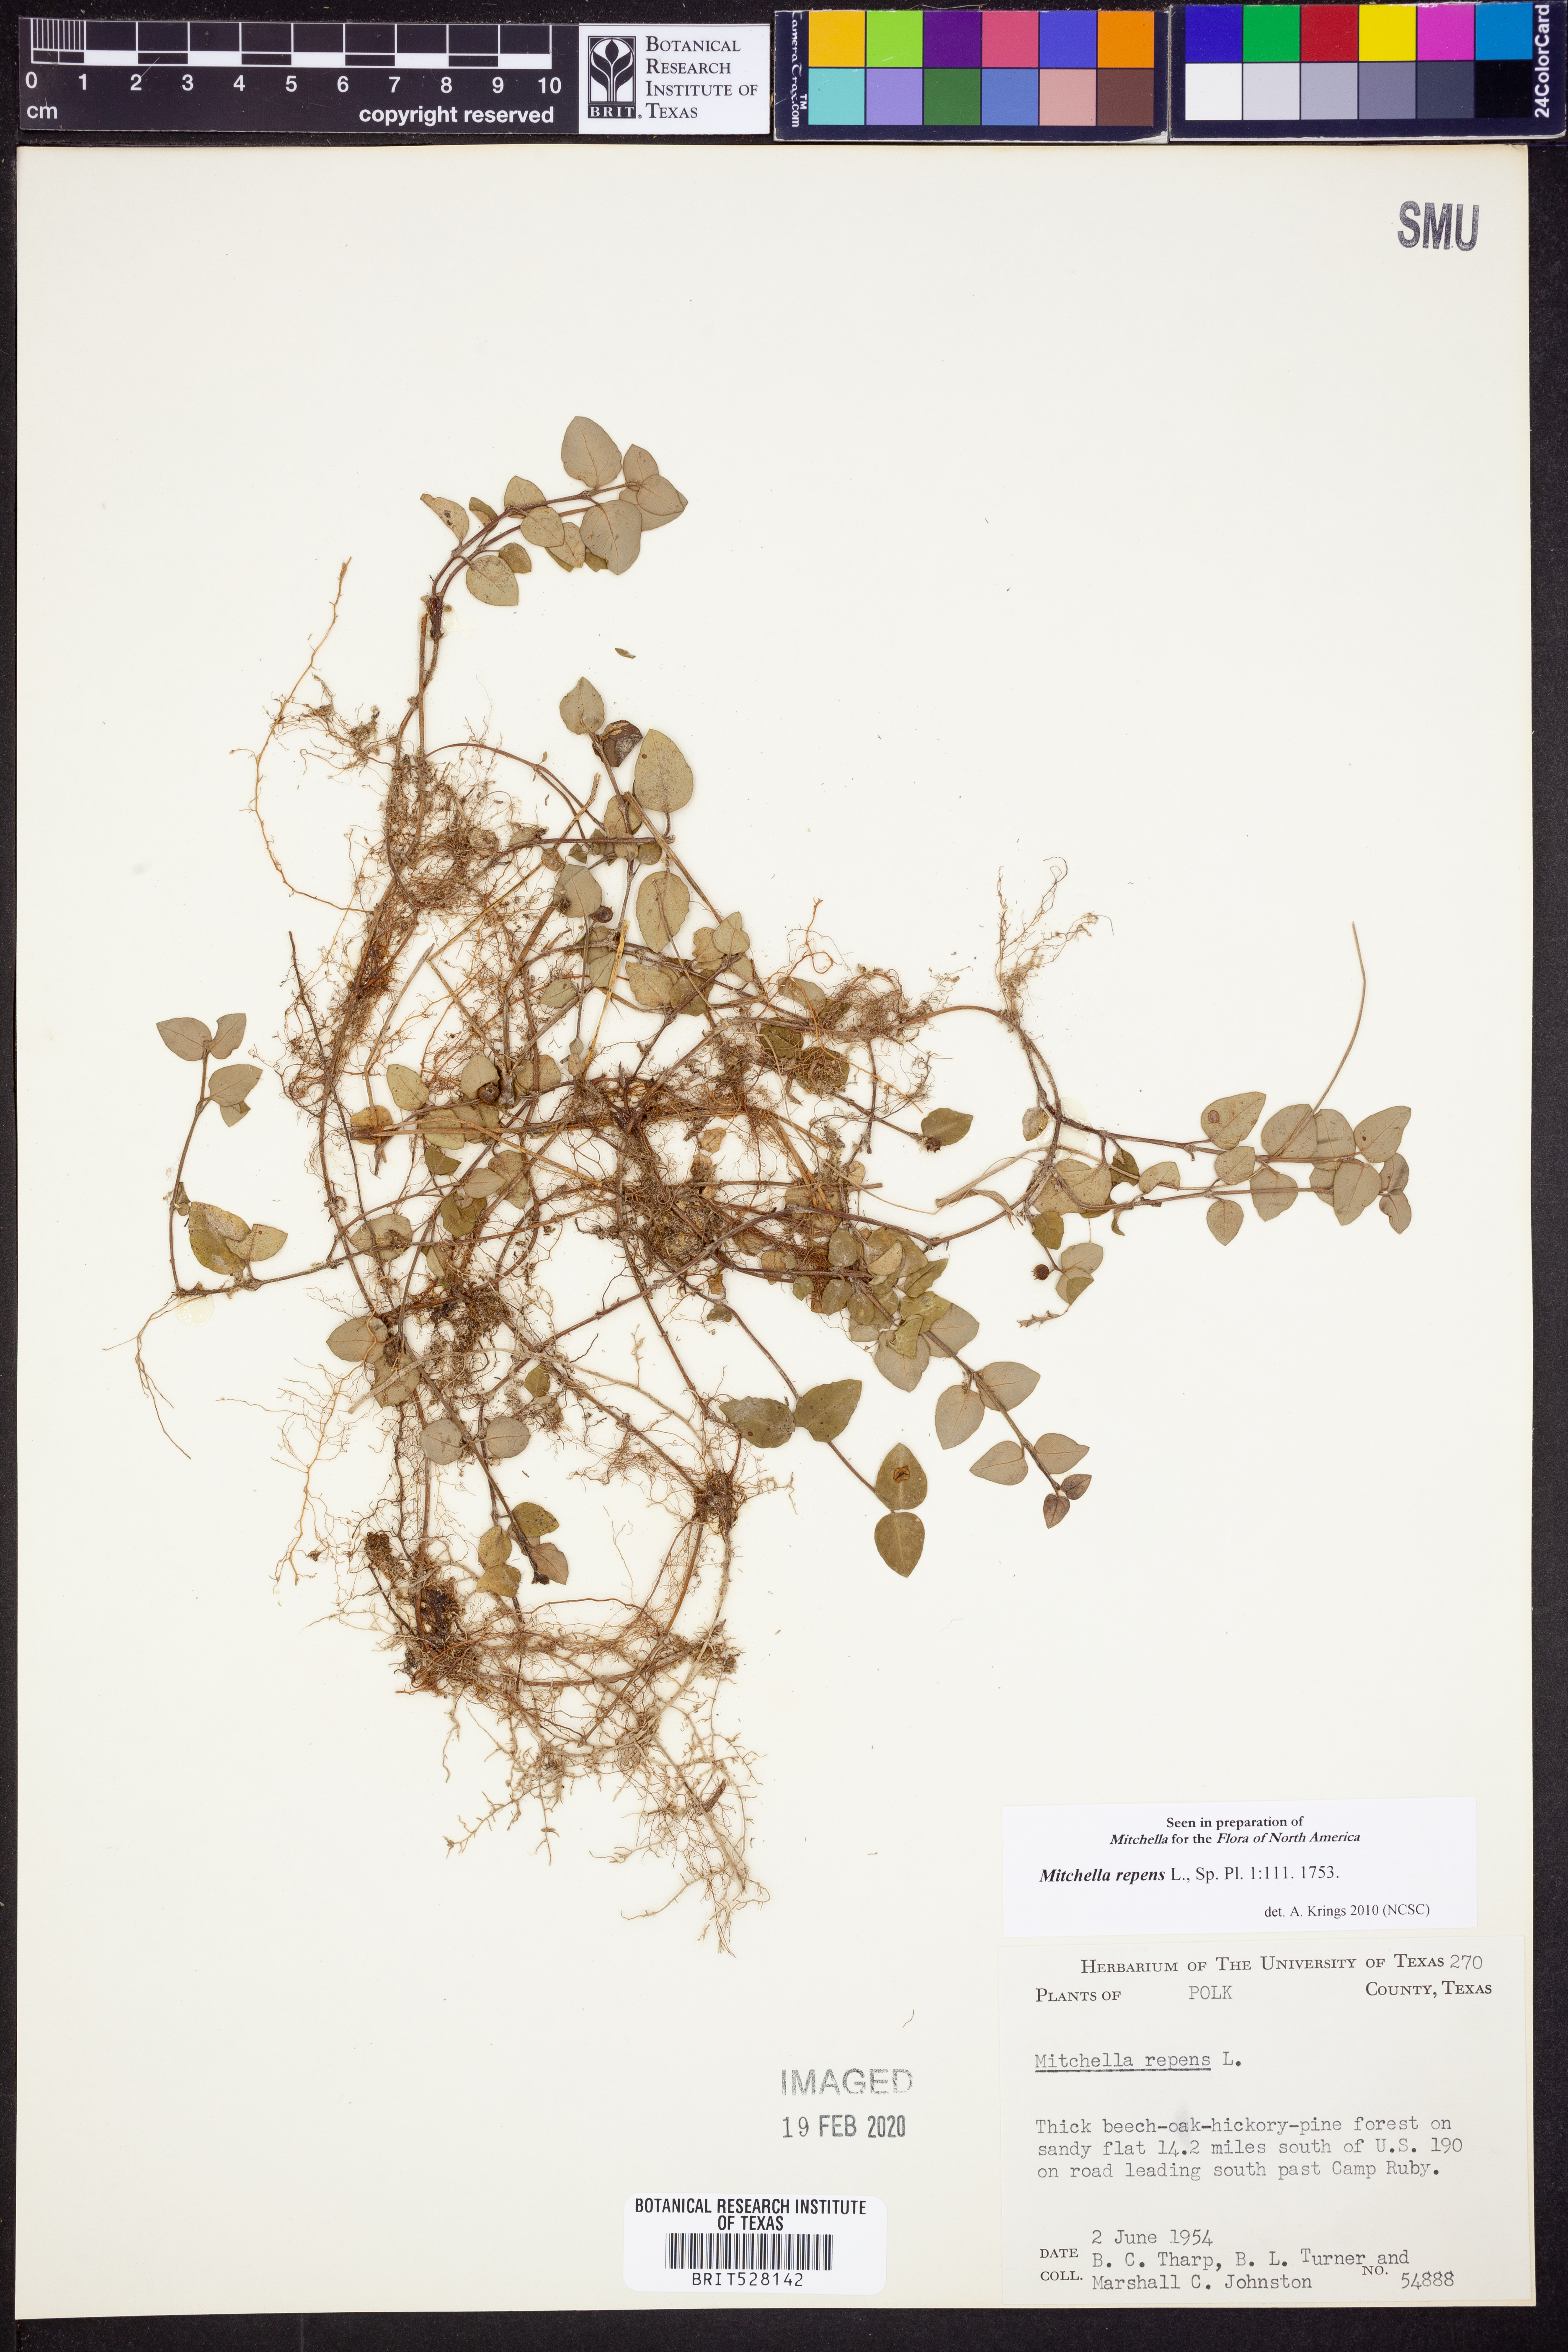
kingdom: Plantae
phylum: Tracheophyta
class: Magnoliopsida
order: Gentianales
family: Rubiaceae
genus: Mitchella
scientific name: Mitchella repens
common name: Partridge-berry
